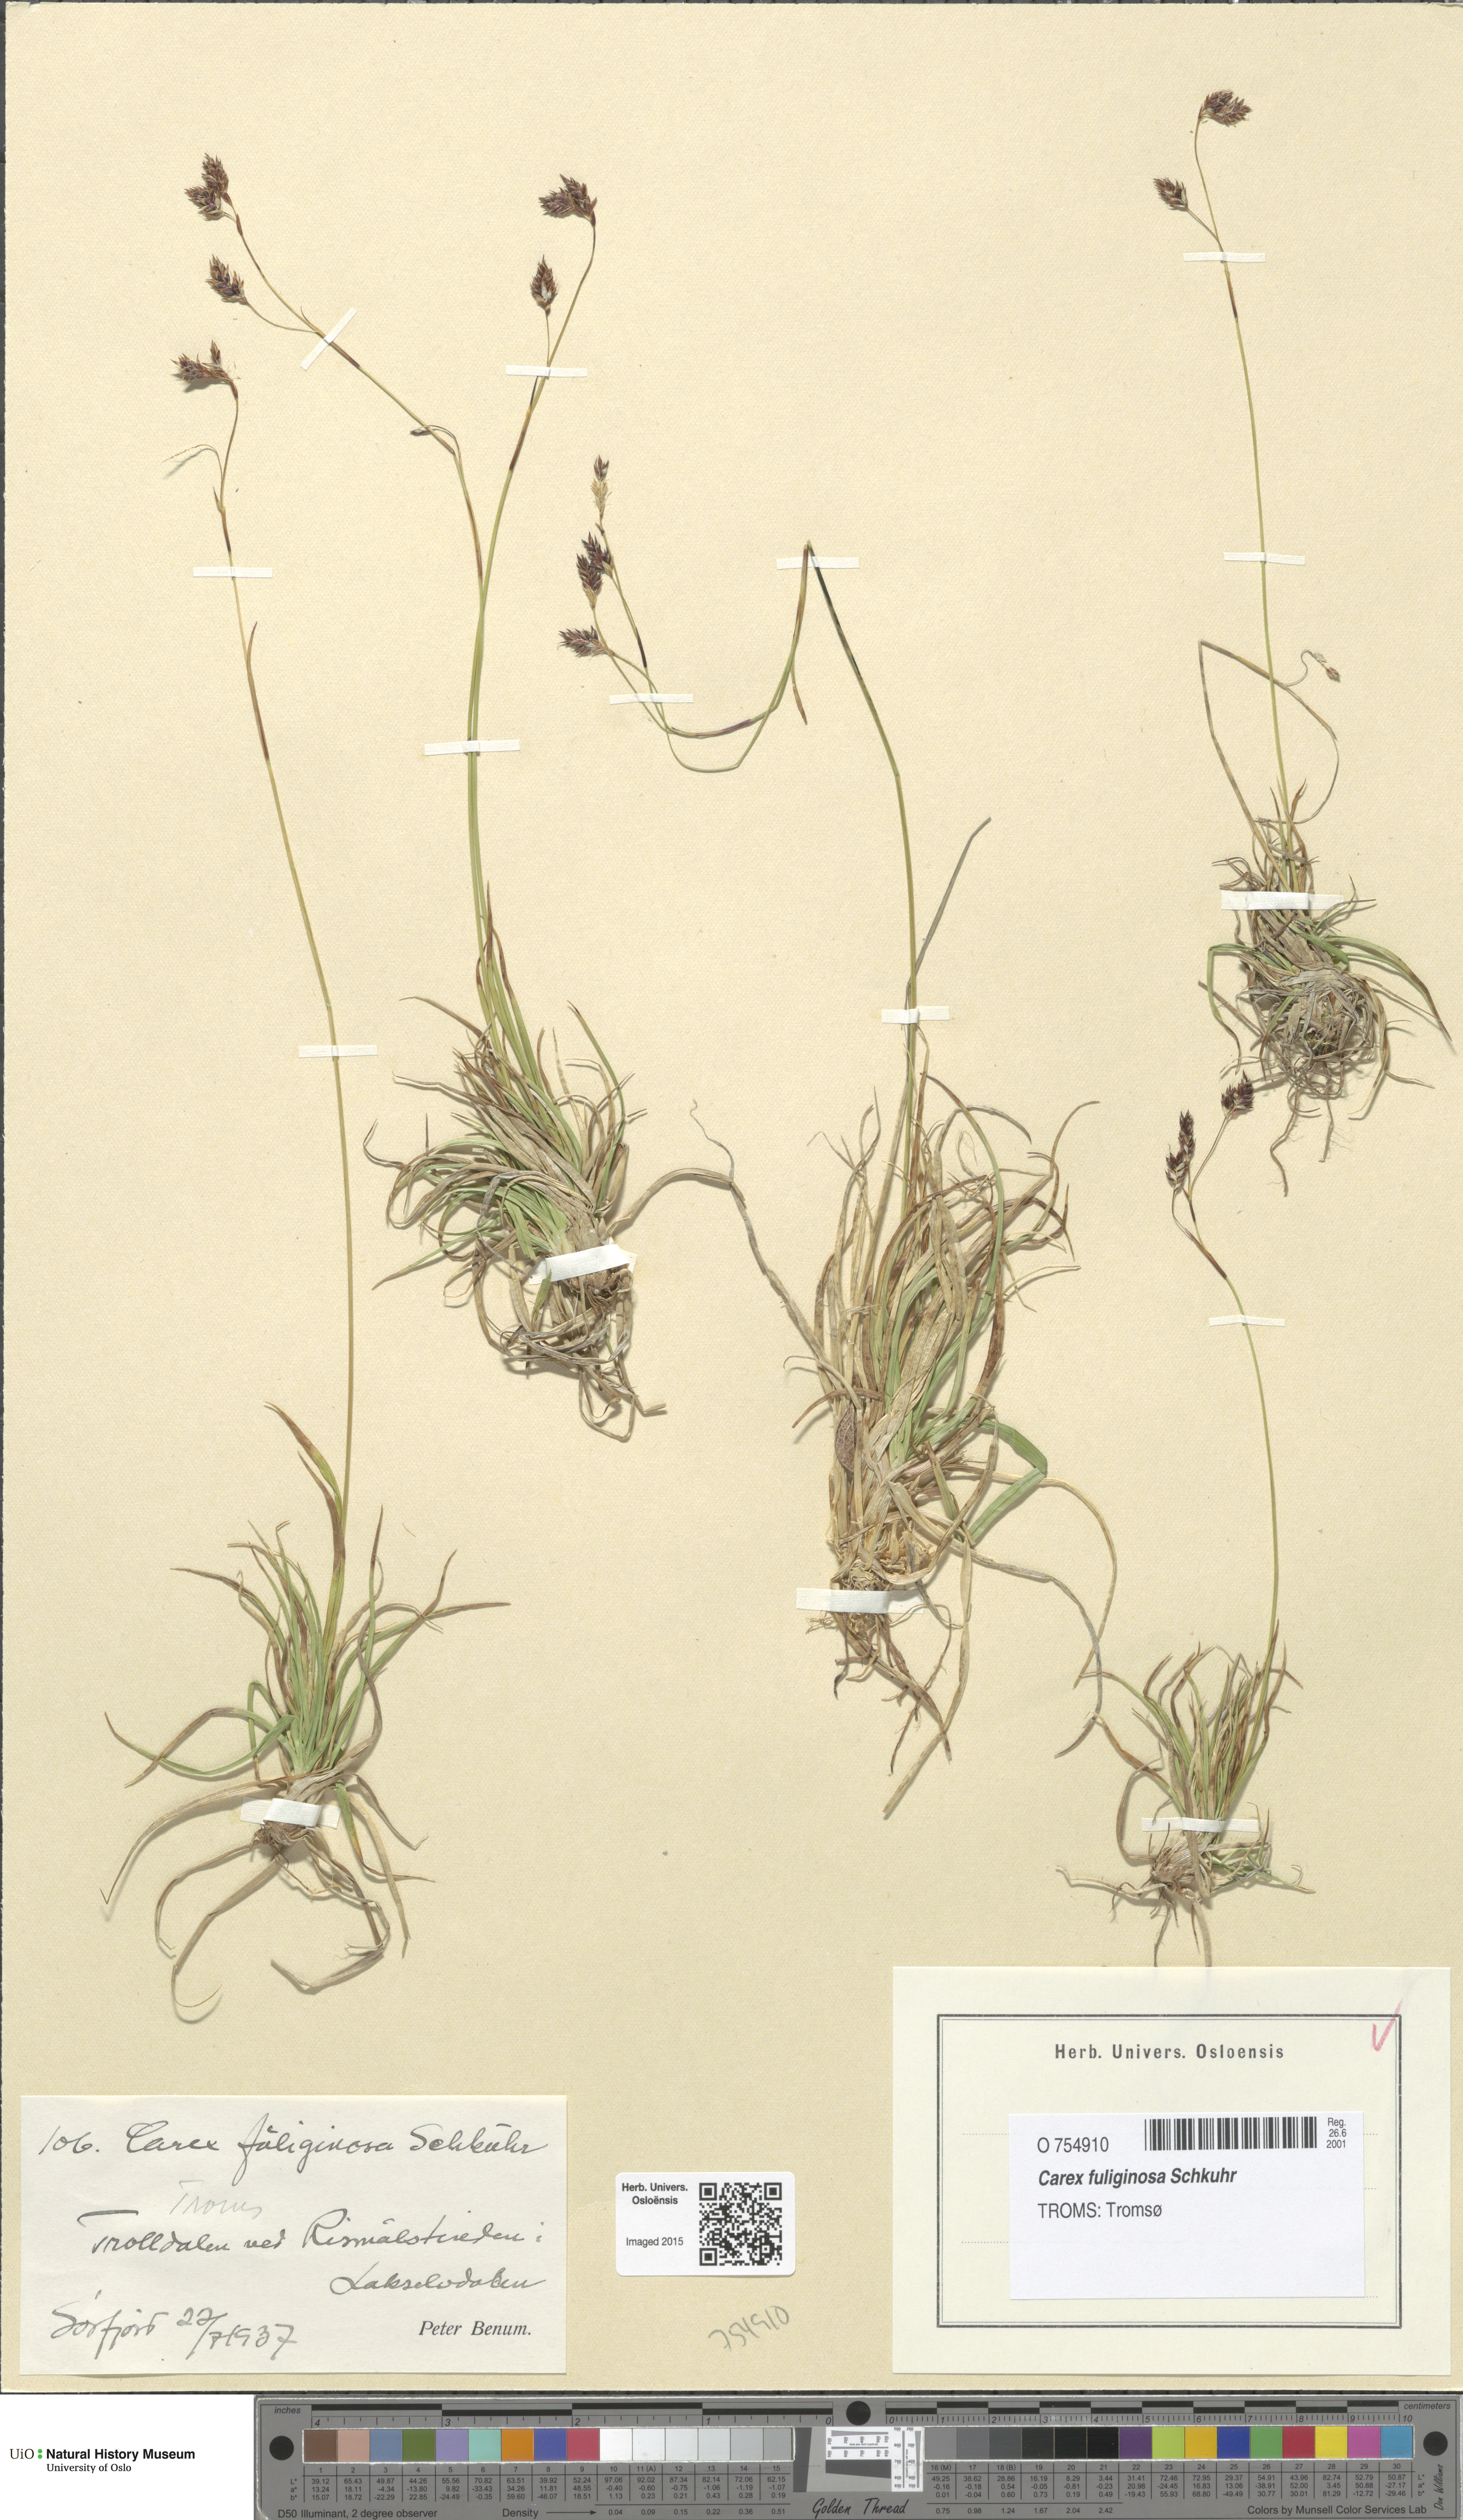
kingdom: Plantae
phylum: Tracheophyta
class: Liliopsida
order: Poales
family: Cyperaceae
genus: Carex
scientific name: Carex fuliginosa
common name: Few-flowered sedge
